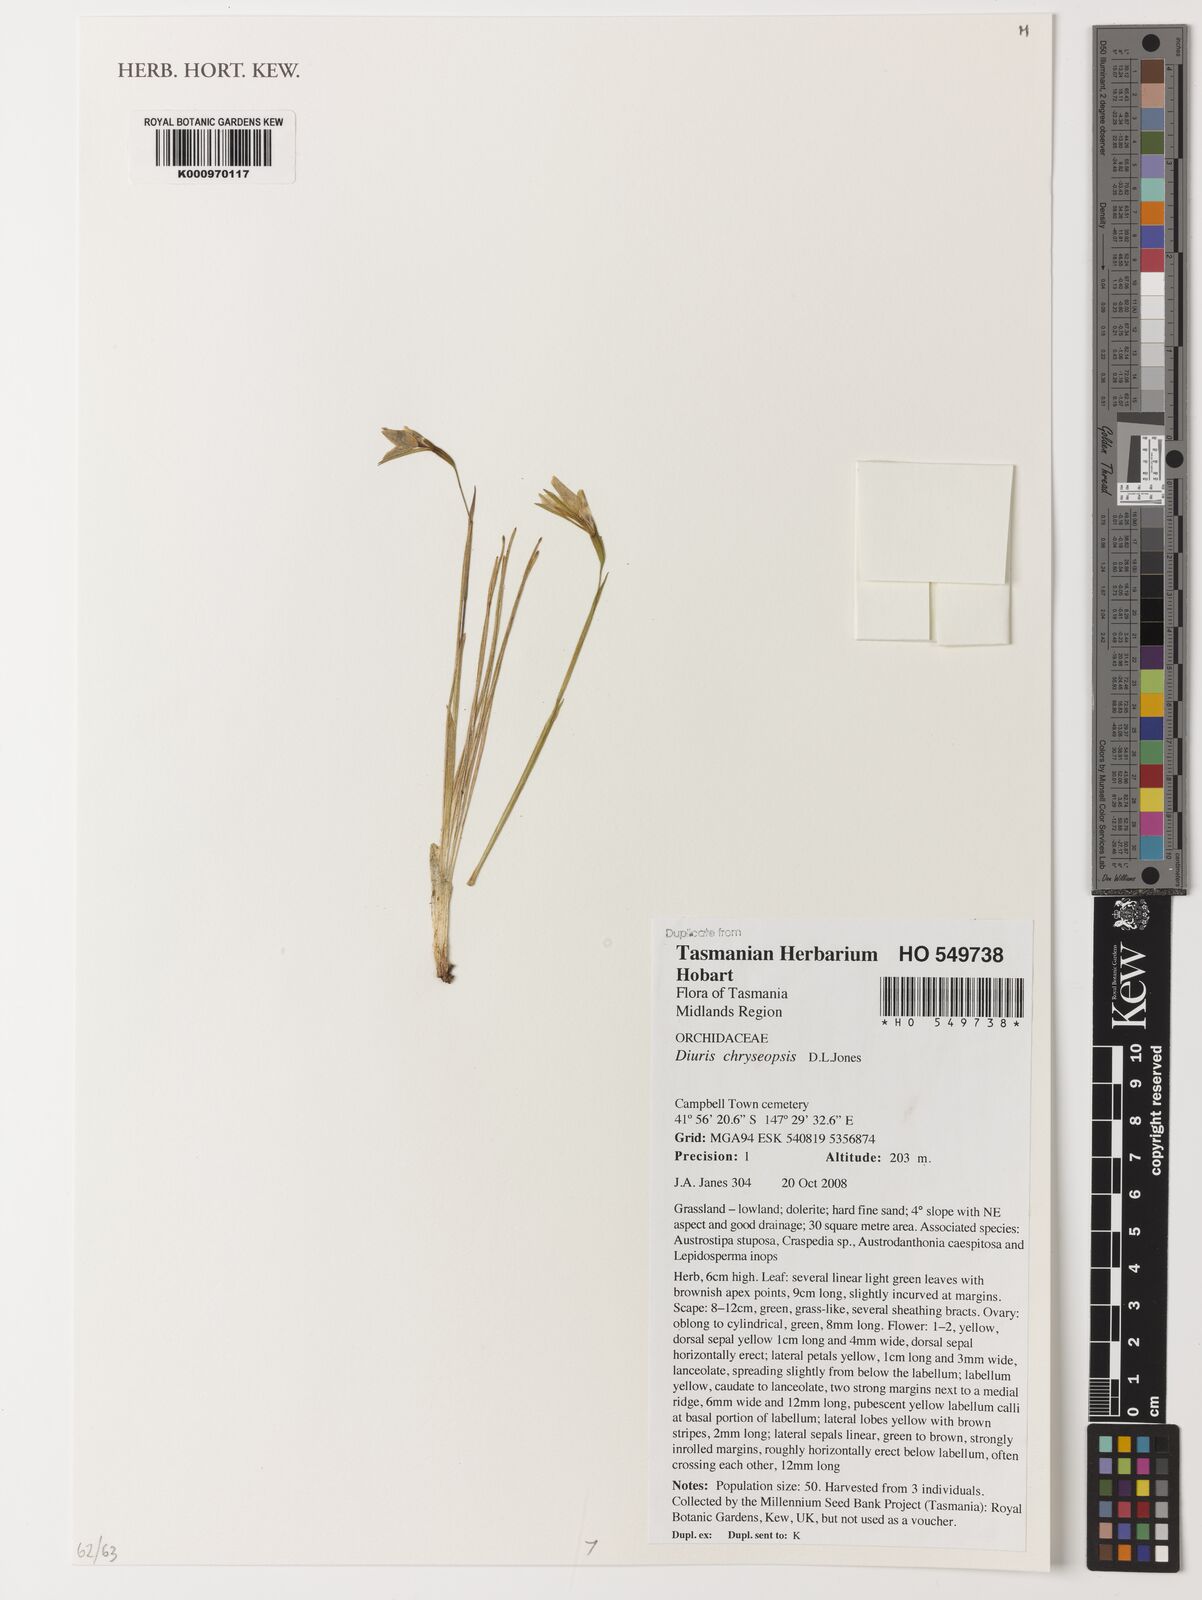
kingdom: Plantae
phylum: Tracheophyta
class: Liliopsida
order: Asparagales
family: Orchidaceae
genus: Diuris
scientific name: Diuris chryseopsis
